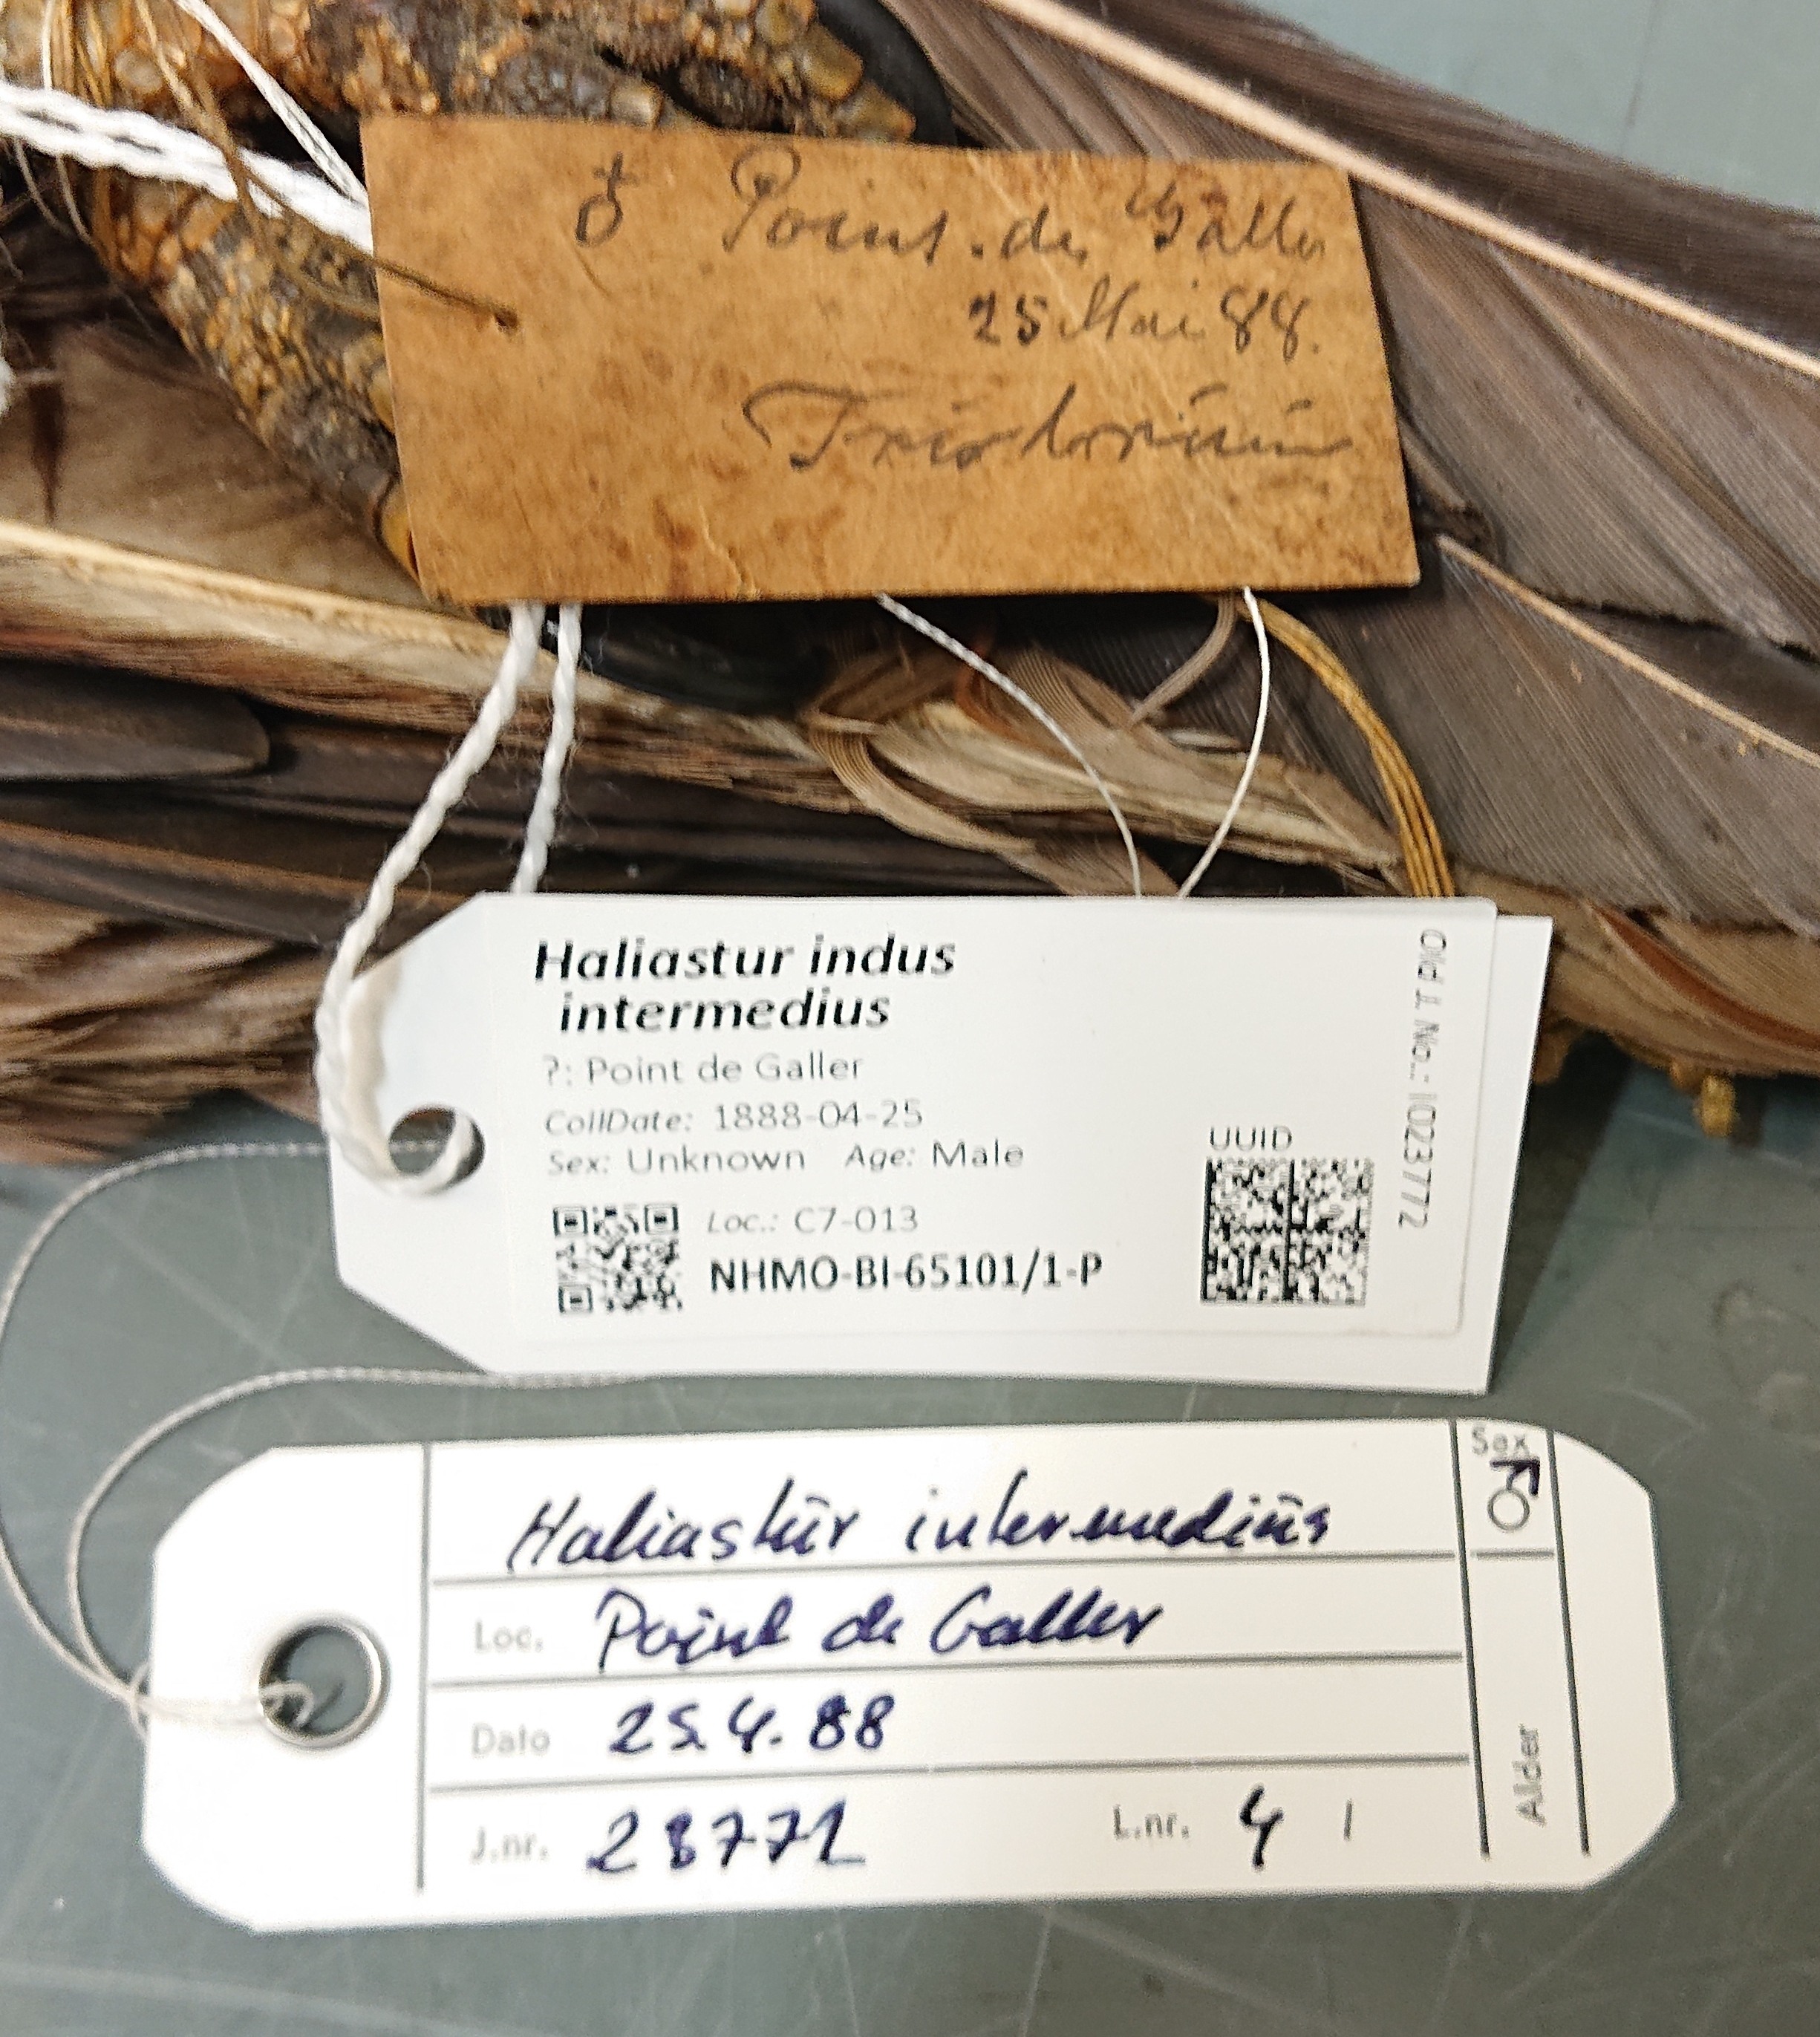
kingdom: Animalia
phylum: Chordata
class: Aves
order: Accipitriformes
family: Accipitridae
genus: Haliastur
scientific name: Haliastur indus
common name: Brahminy kite
